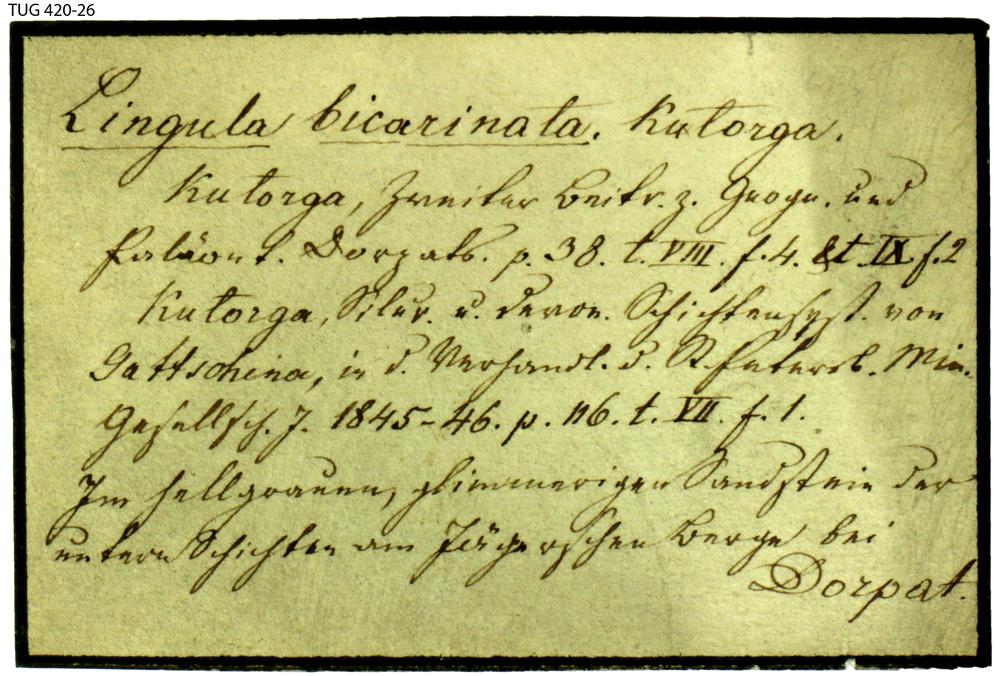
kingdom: Animalia
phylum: Brachiopoda
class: Lingulata
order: Lingulida
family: Pseudolingulidae
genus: Bicarinatina
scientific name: Bicarinatina Lingula bicarinata
